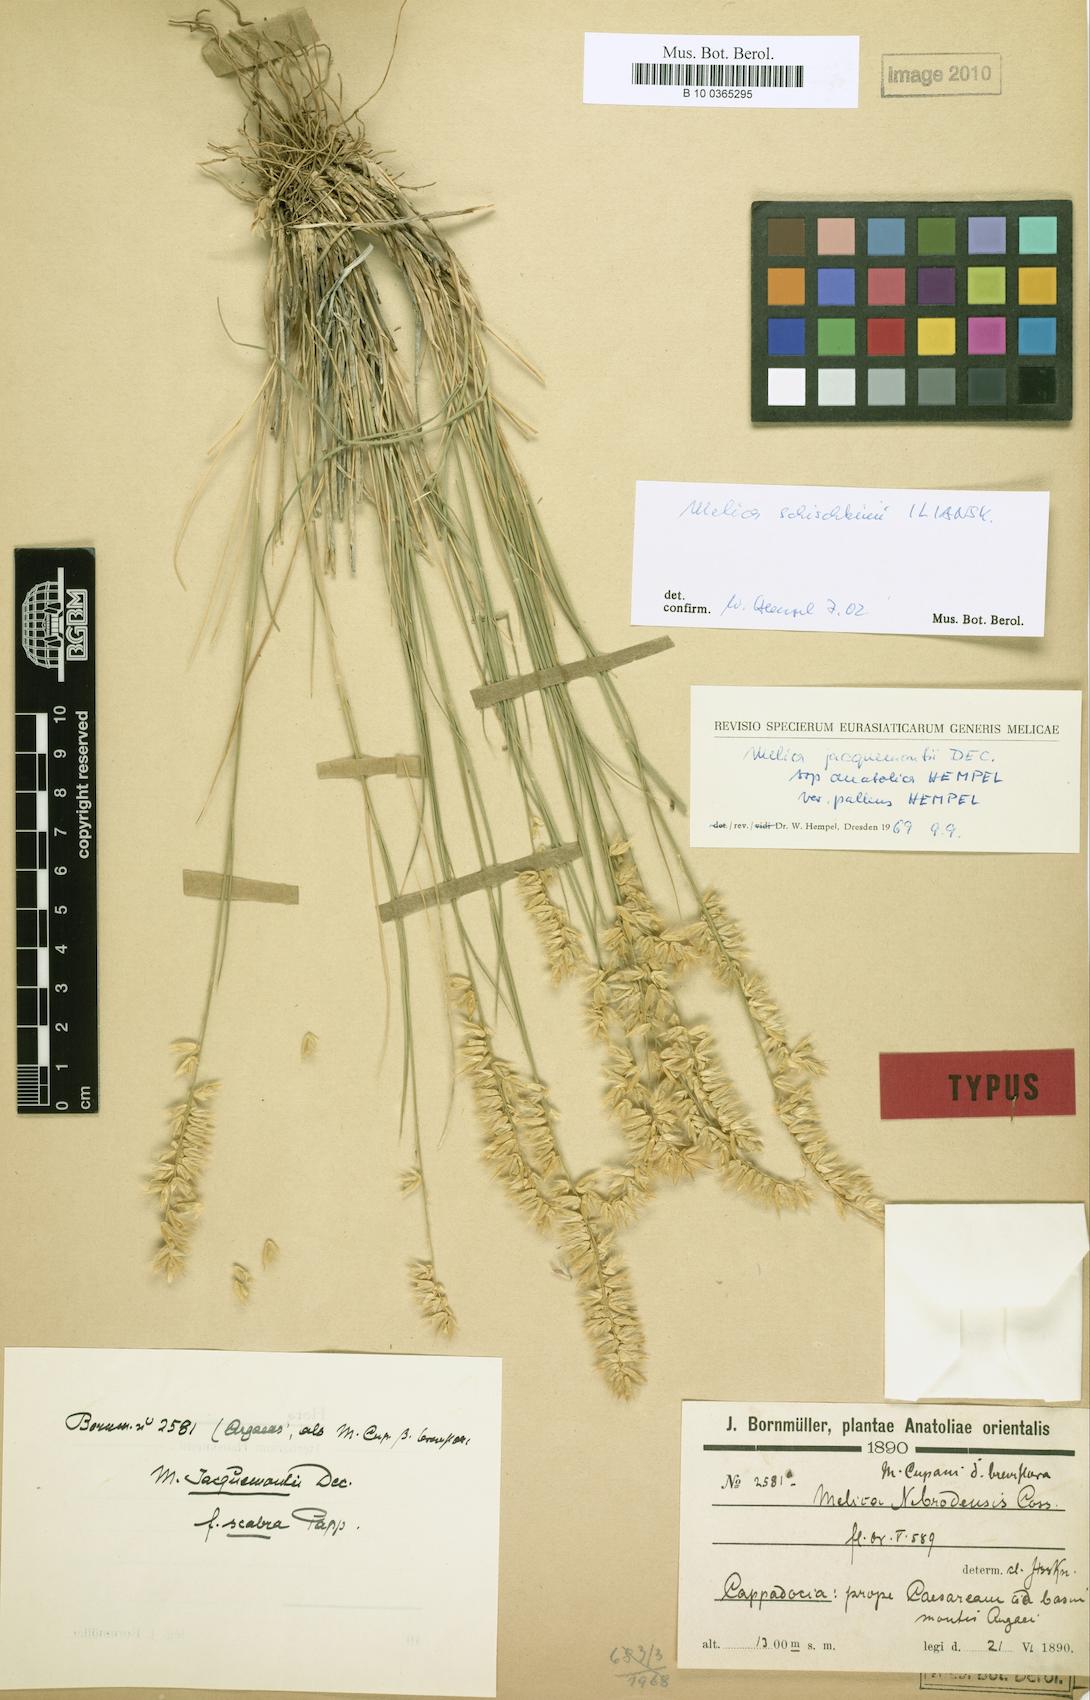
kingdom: Plantae
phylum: Tracheophyta
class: Liliopsida
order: Poales
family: Poaceae
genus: Melica
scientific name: Melica persica
